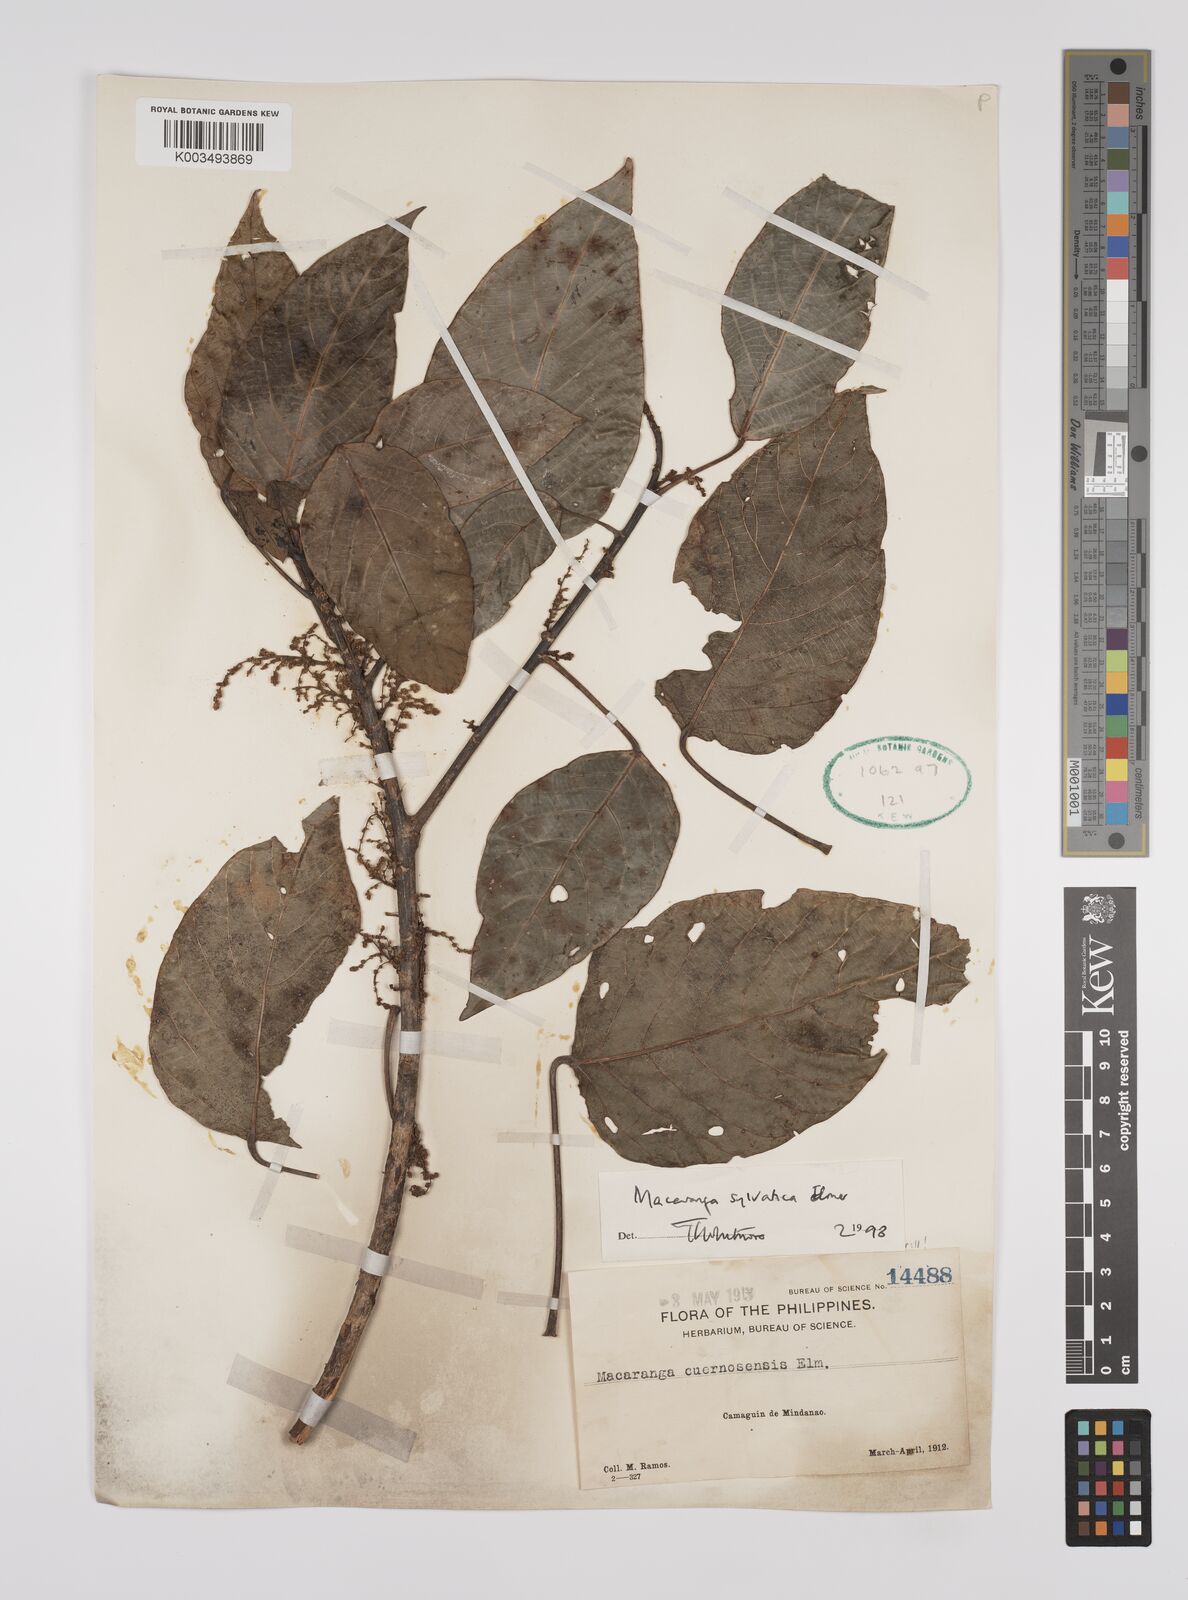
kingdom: Plantae
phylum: Tracheophyta
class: Magnoliopsida
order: Malpighiales
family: Euphorbiaceae
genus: Macaranga
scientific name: Macaranga sylvatica
